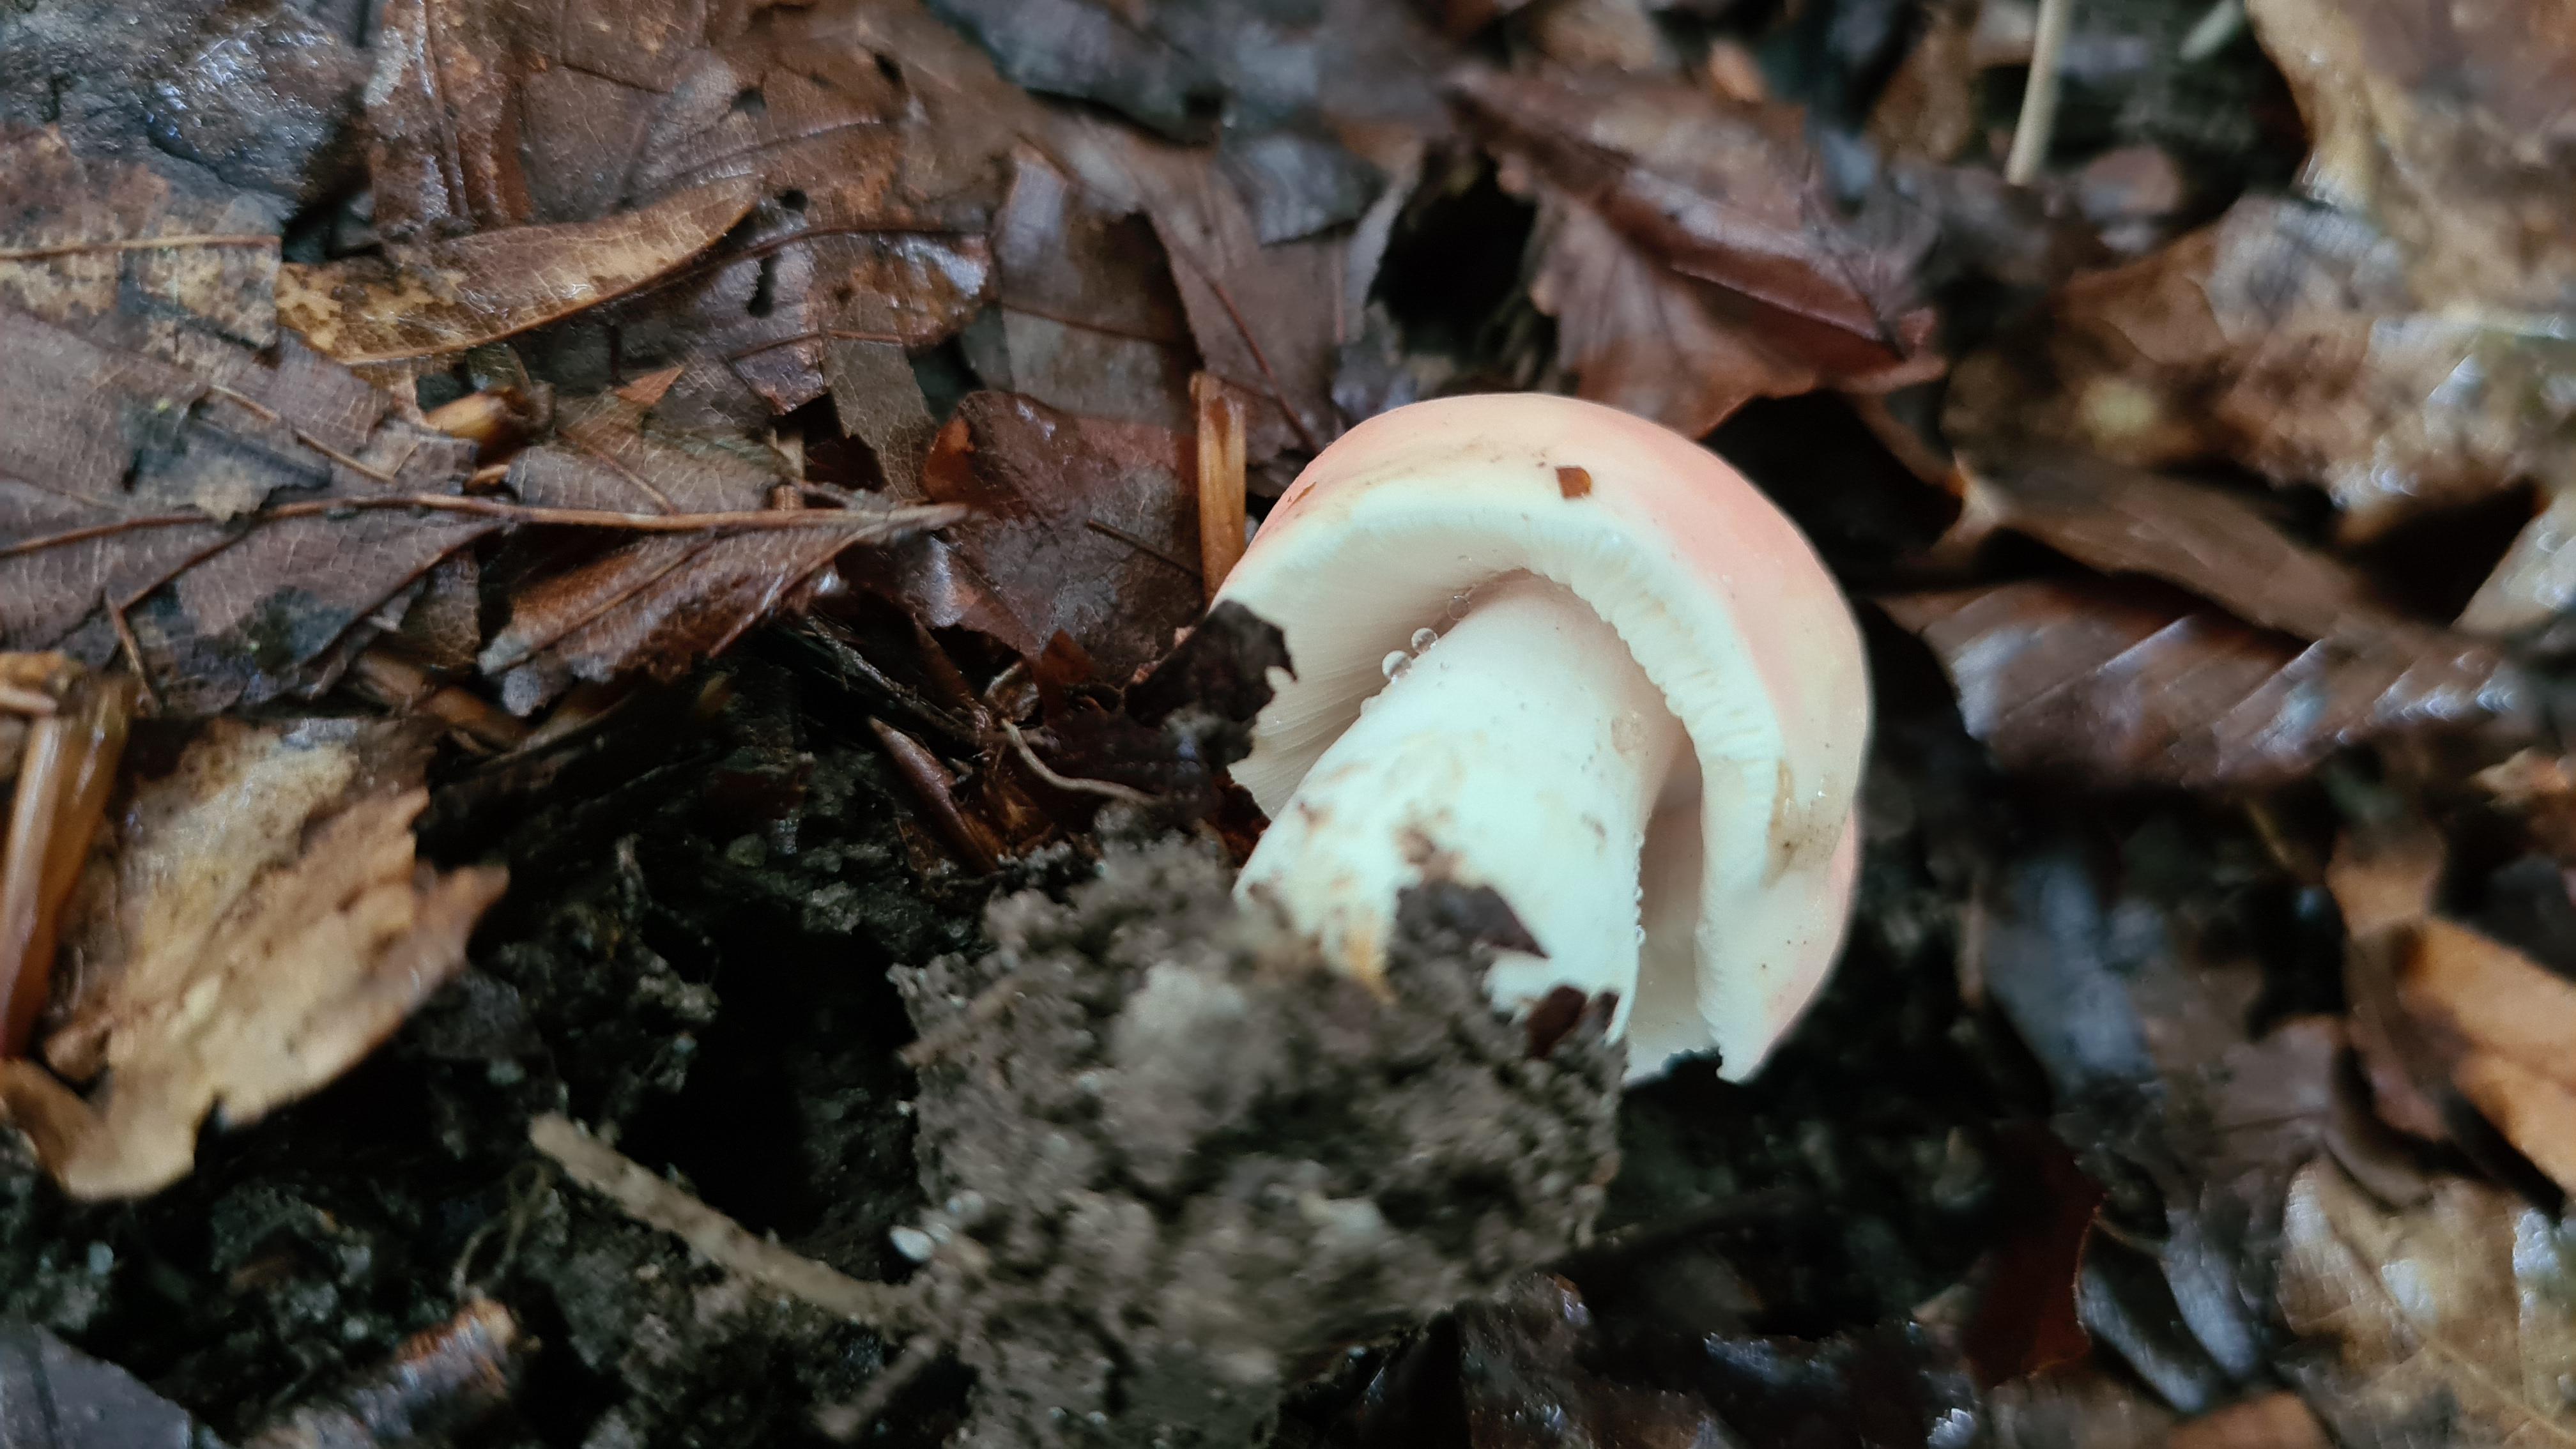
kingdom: Fungi
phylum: Basidiomycota
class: Agaricomycetes
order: Russulales
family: Russulaceae
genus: Russula
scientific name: Russula rosea
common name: fastkødet skørhat
